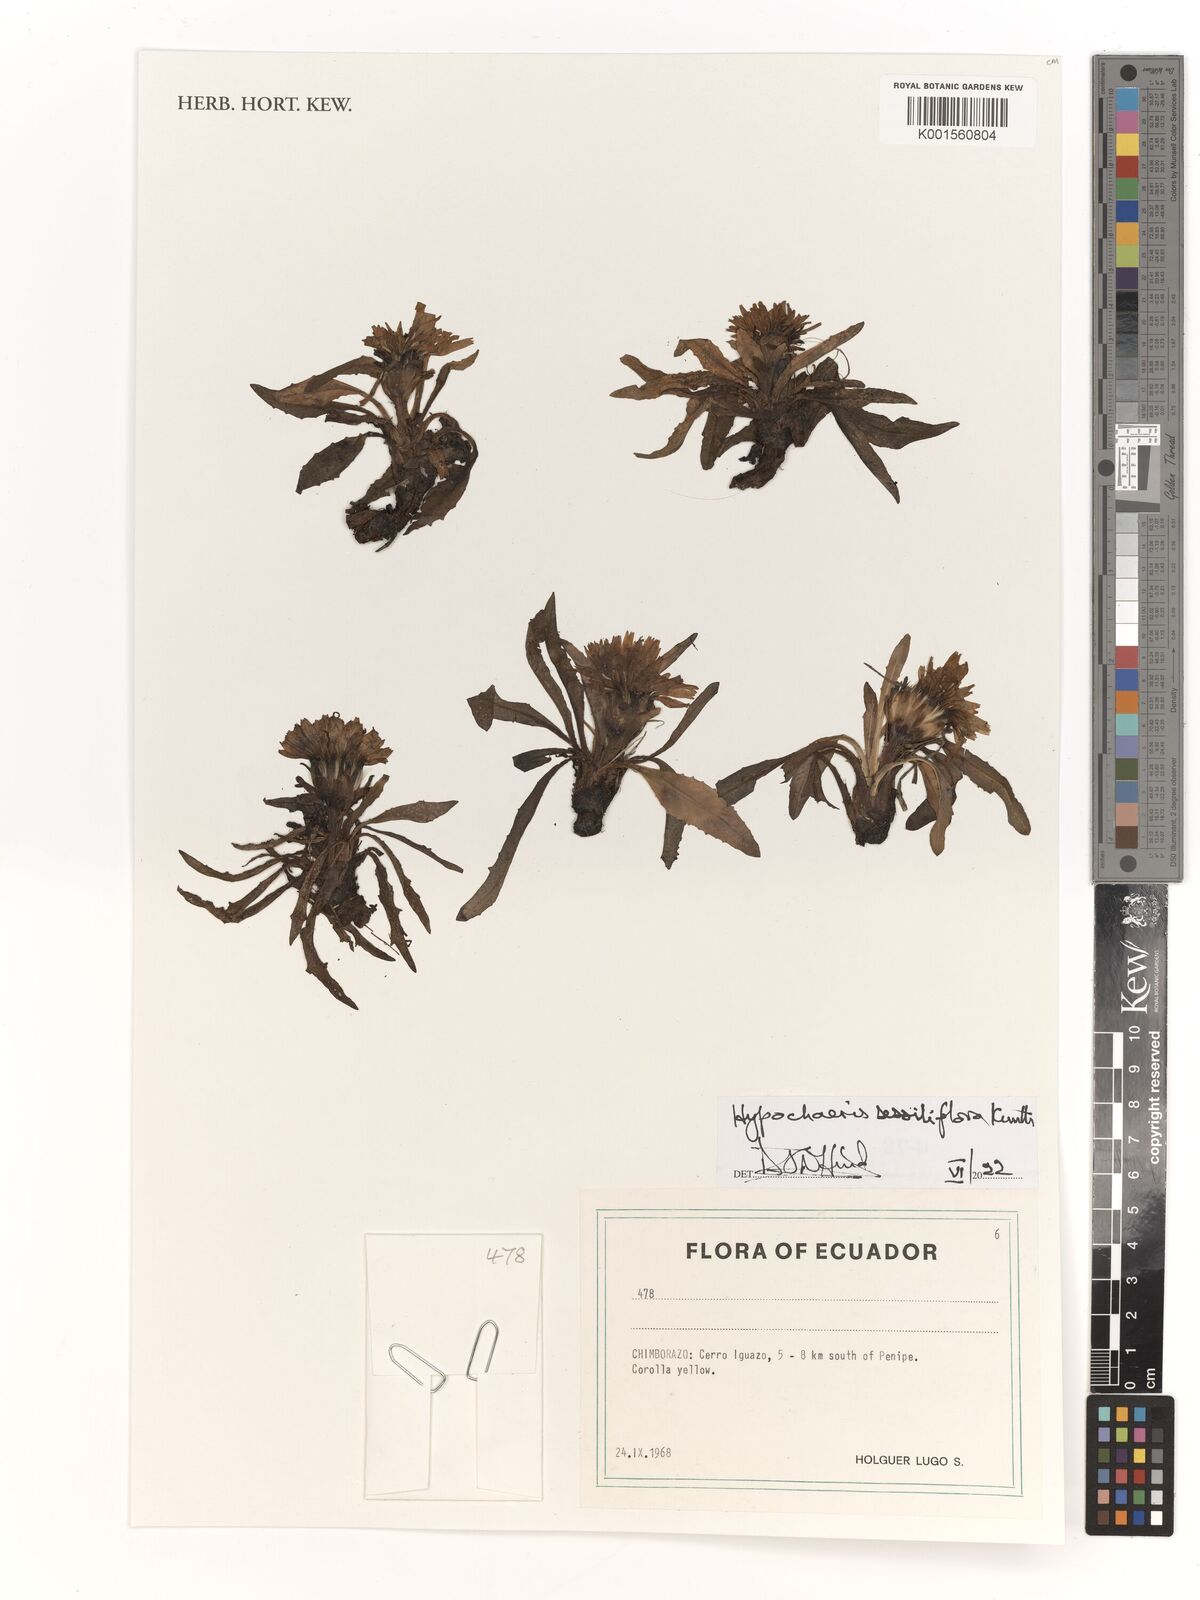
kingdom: Plantae
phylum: Tracheophyta
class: Magnoliopsida
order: Asterales
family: Asteraceae
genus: Hypochaeris
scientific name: Hypochaeris
